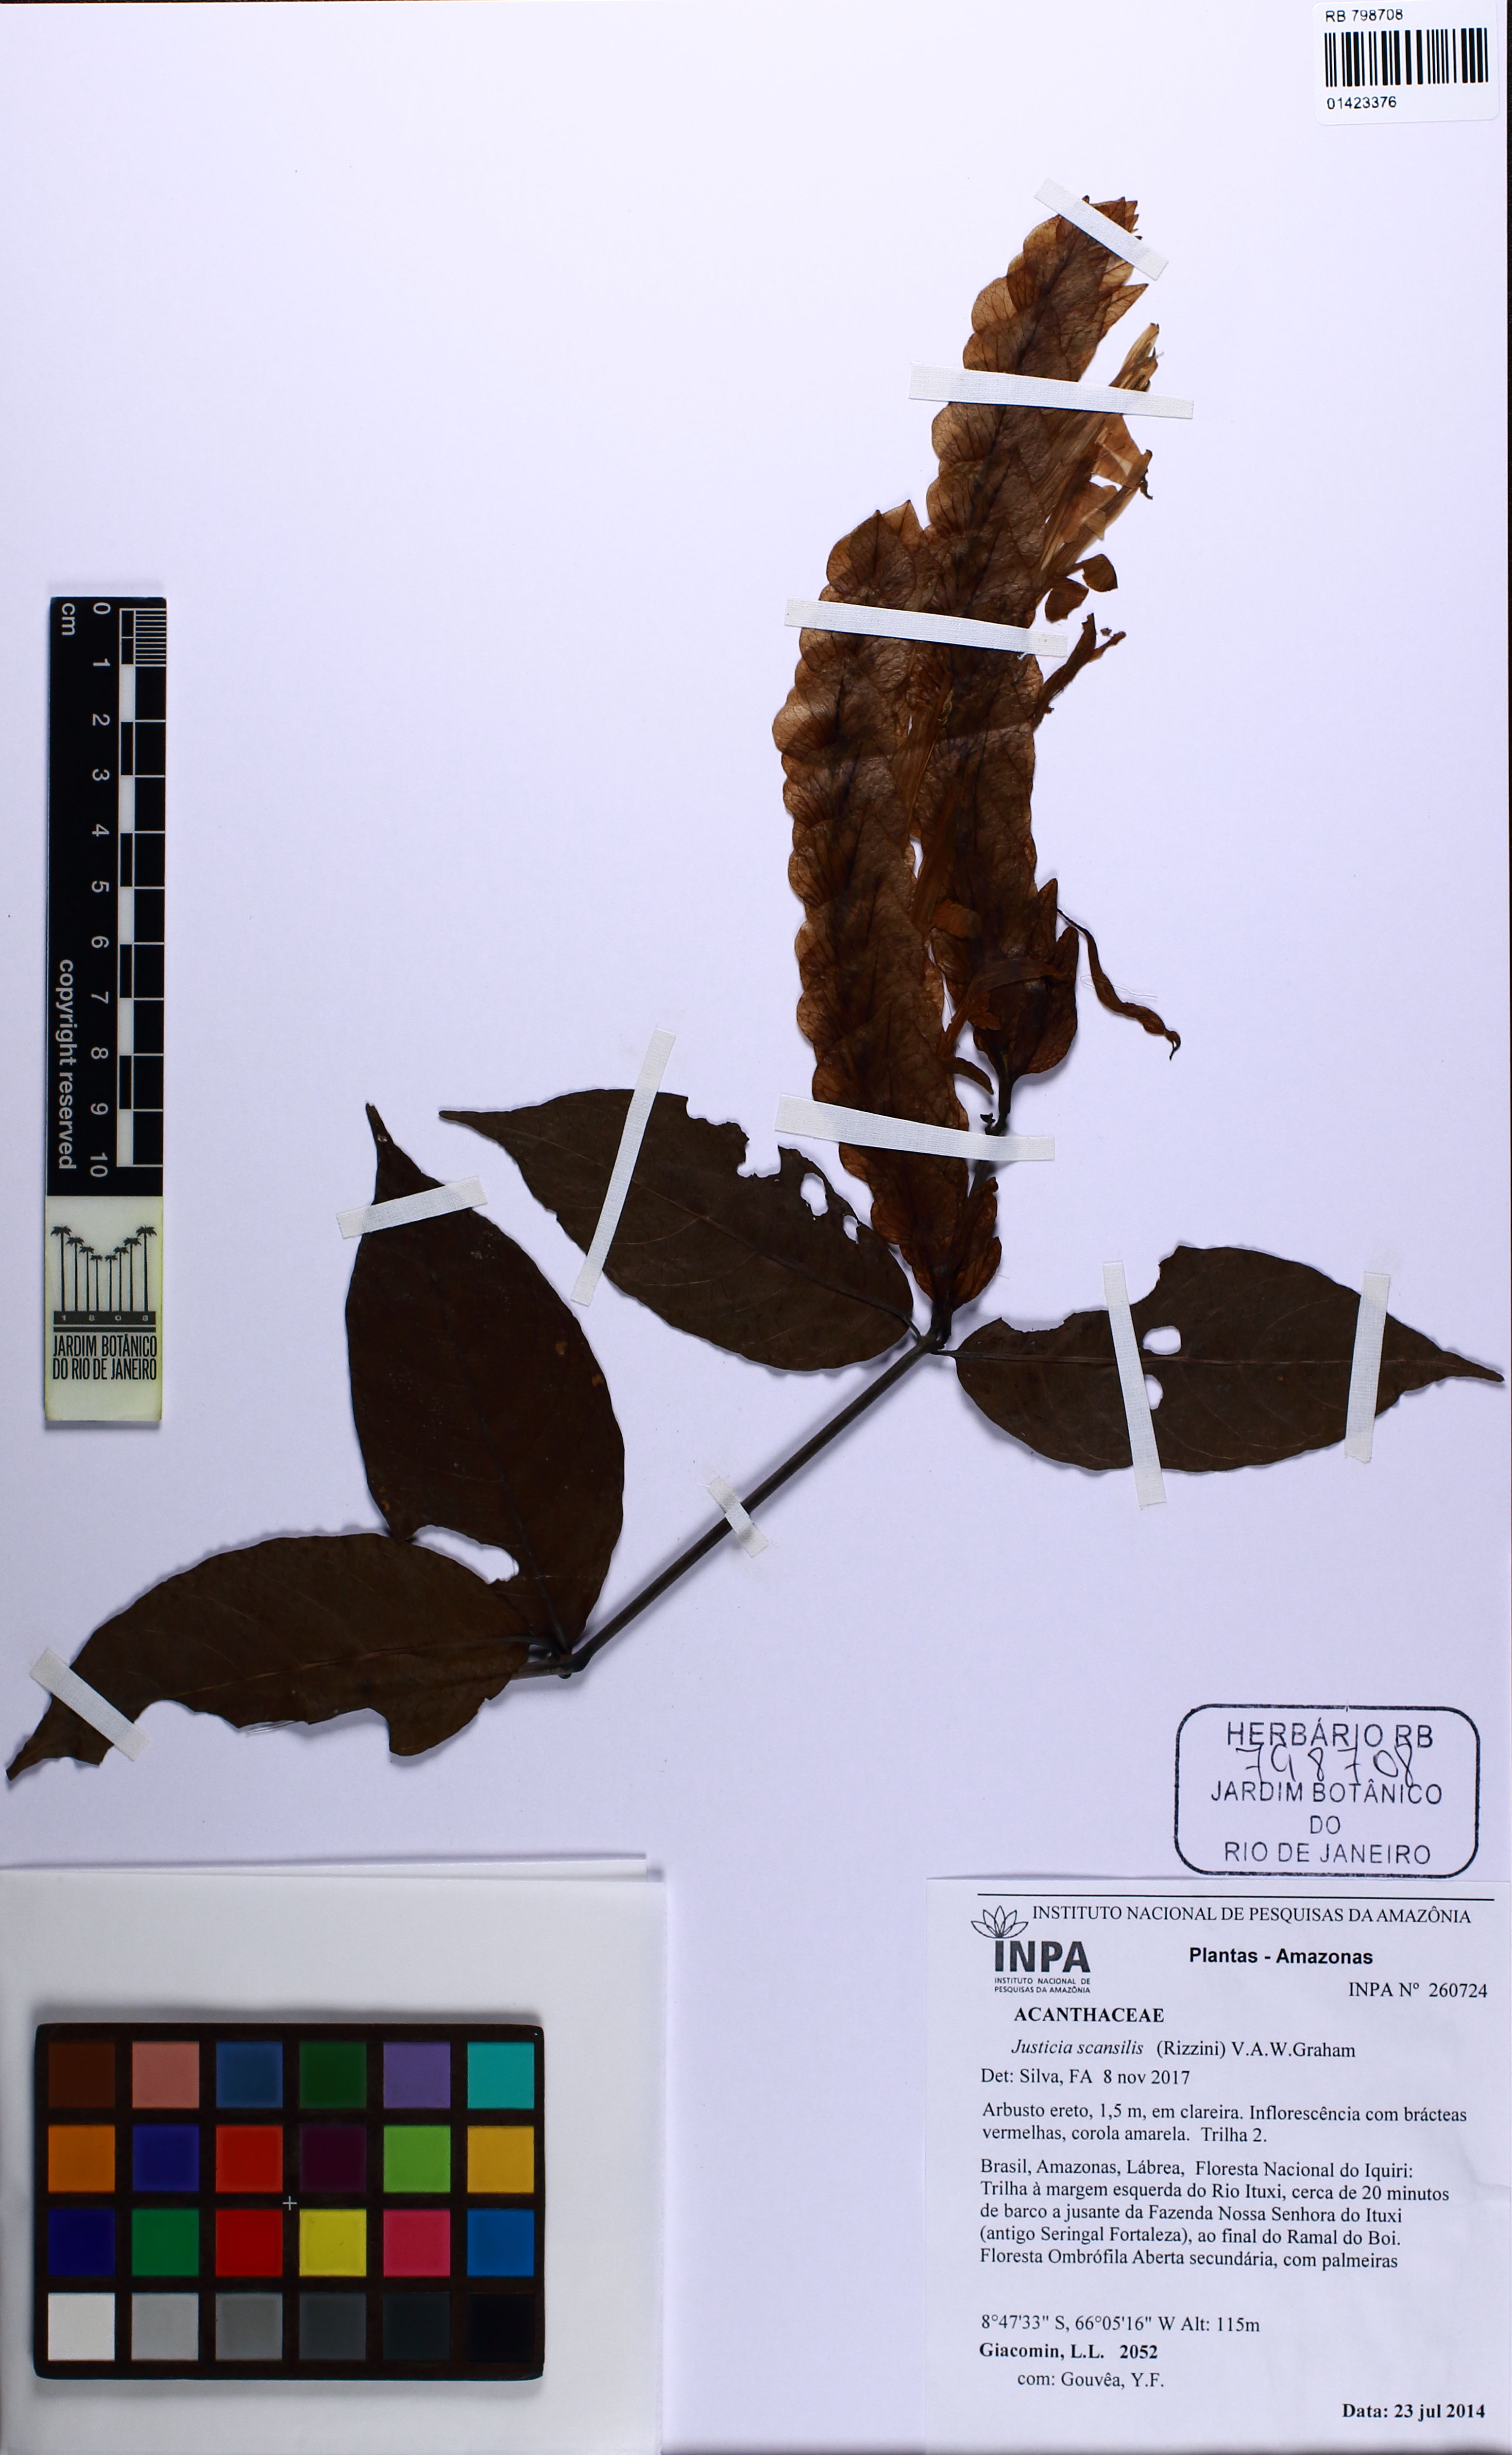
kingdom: Plantae
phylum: Tracheophyta
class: Magnoliopsida
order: Lamiales
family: Acanthaceae
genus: Justicia
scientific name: Justicia scansilis
